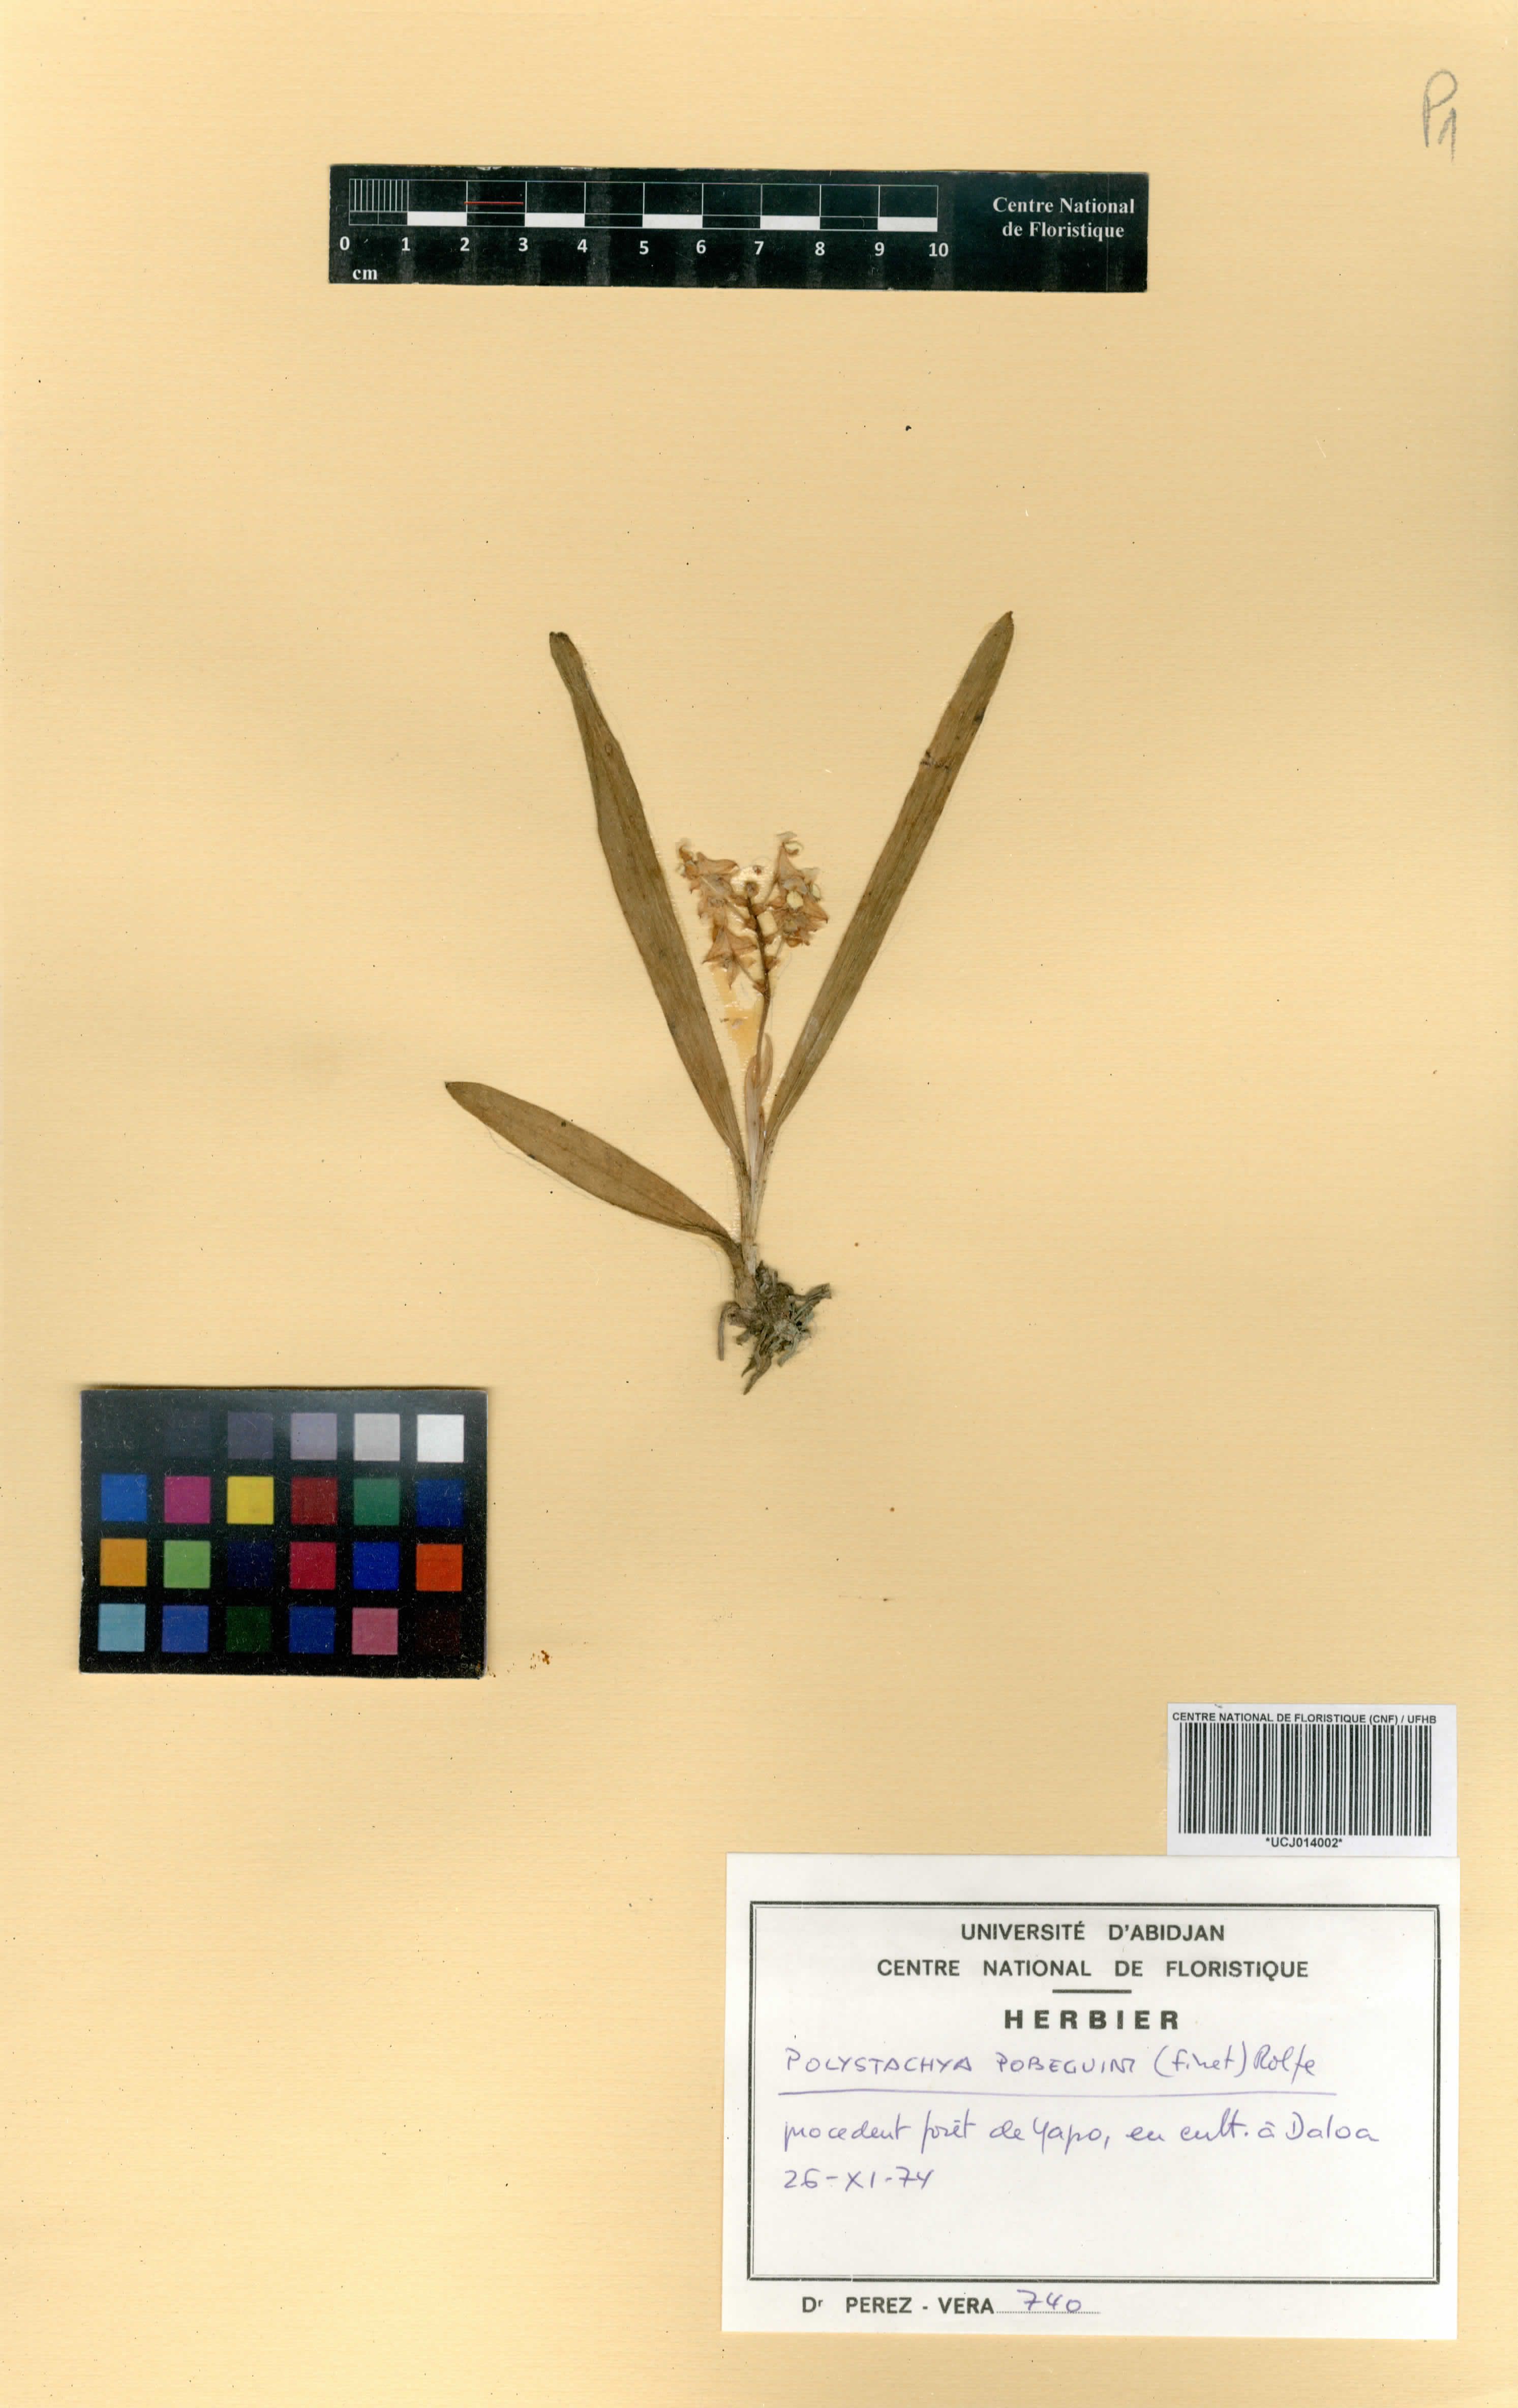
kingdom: Plantae
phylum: Tracheophyta
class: Liliopsida
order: Asparagales
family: Orchidaceae
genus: Polystachya
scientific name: Polystachya pobeguinii
